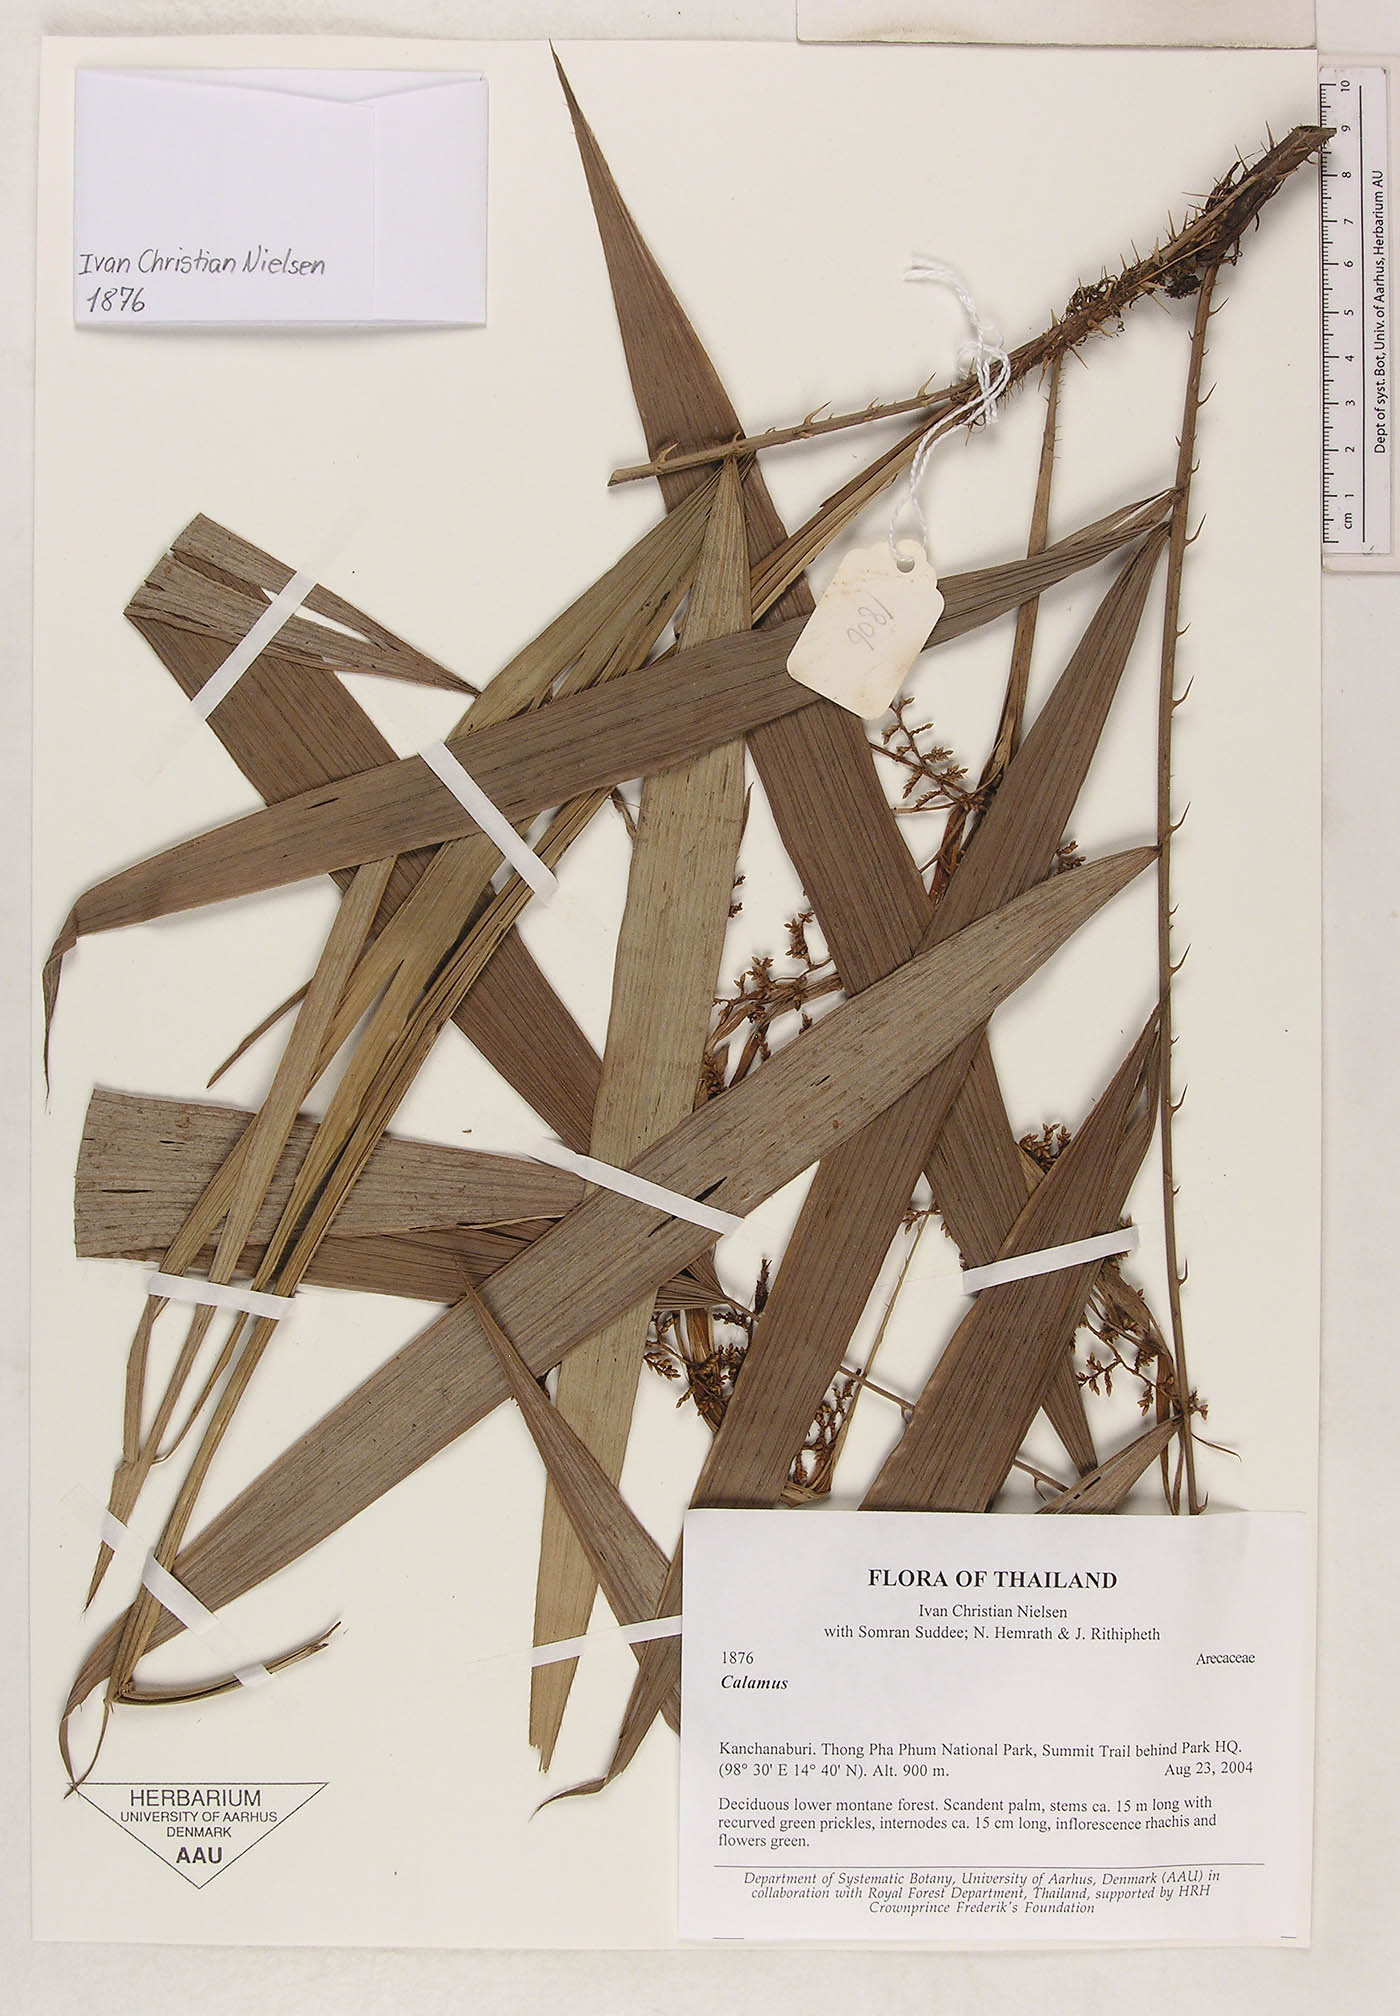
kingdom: Plantae
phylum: Tracheophyta
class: Liliopsida
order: Arecales
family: Arecaceae
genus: Calamus
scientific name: Calamus
